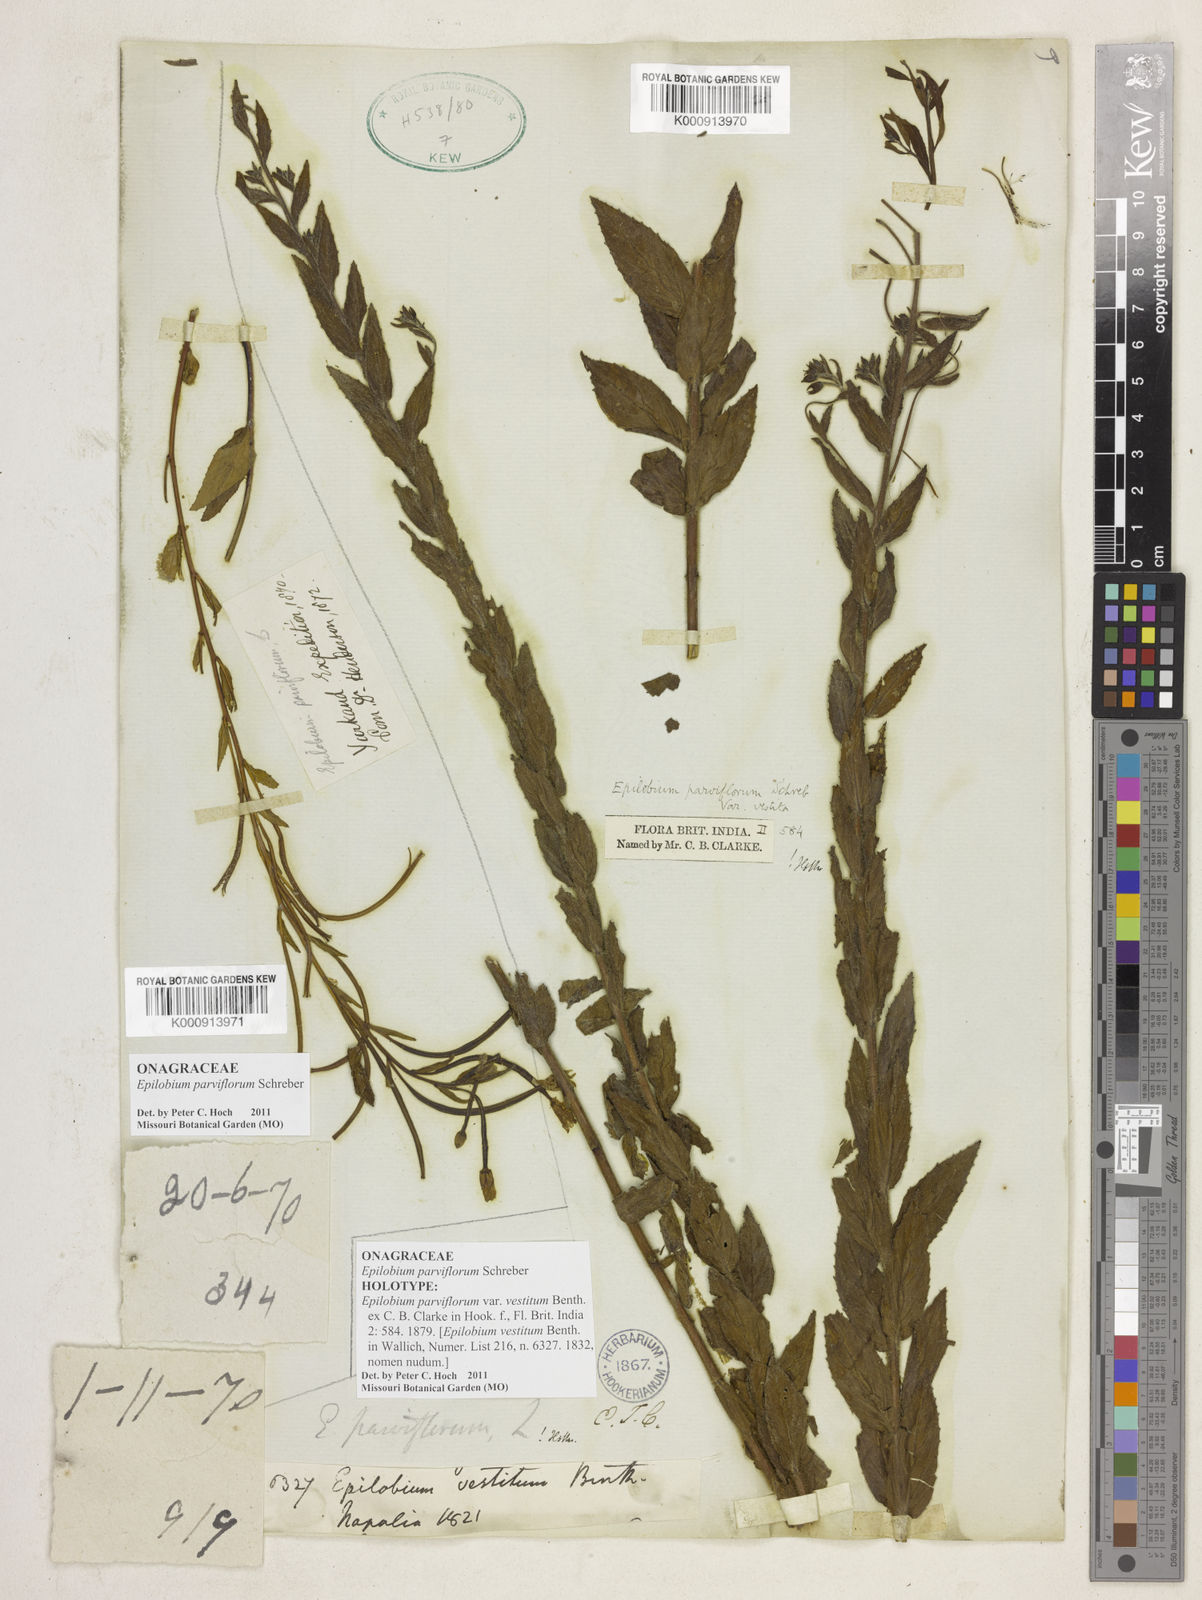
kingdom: Plantae
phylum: Tracheophyta
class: Magnoliopsida
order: Myrtales
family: Onagraceae
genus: Epilobium
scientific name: Epilobium parviflorum
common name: Hoary willowherb
